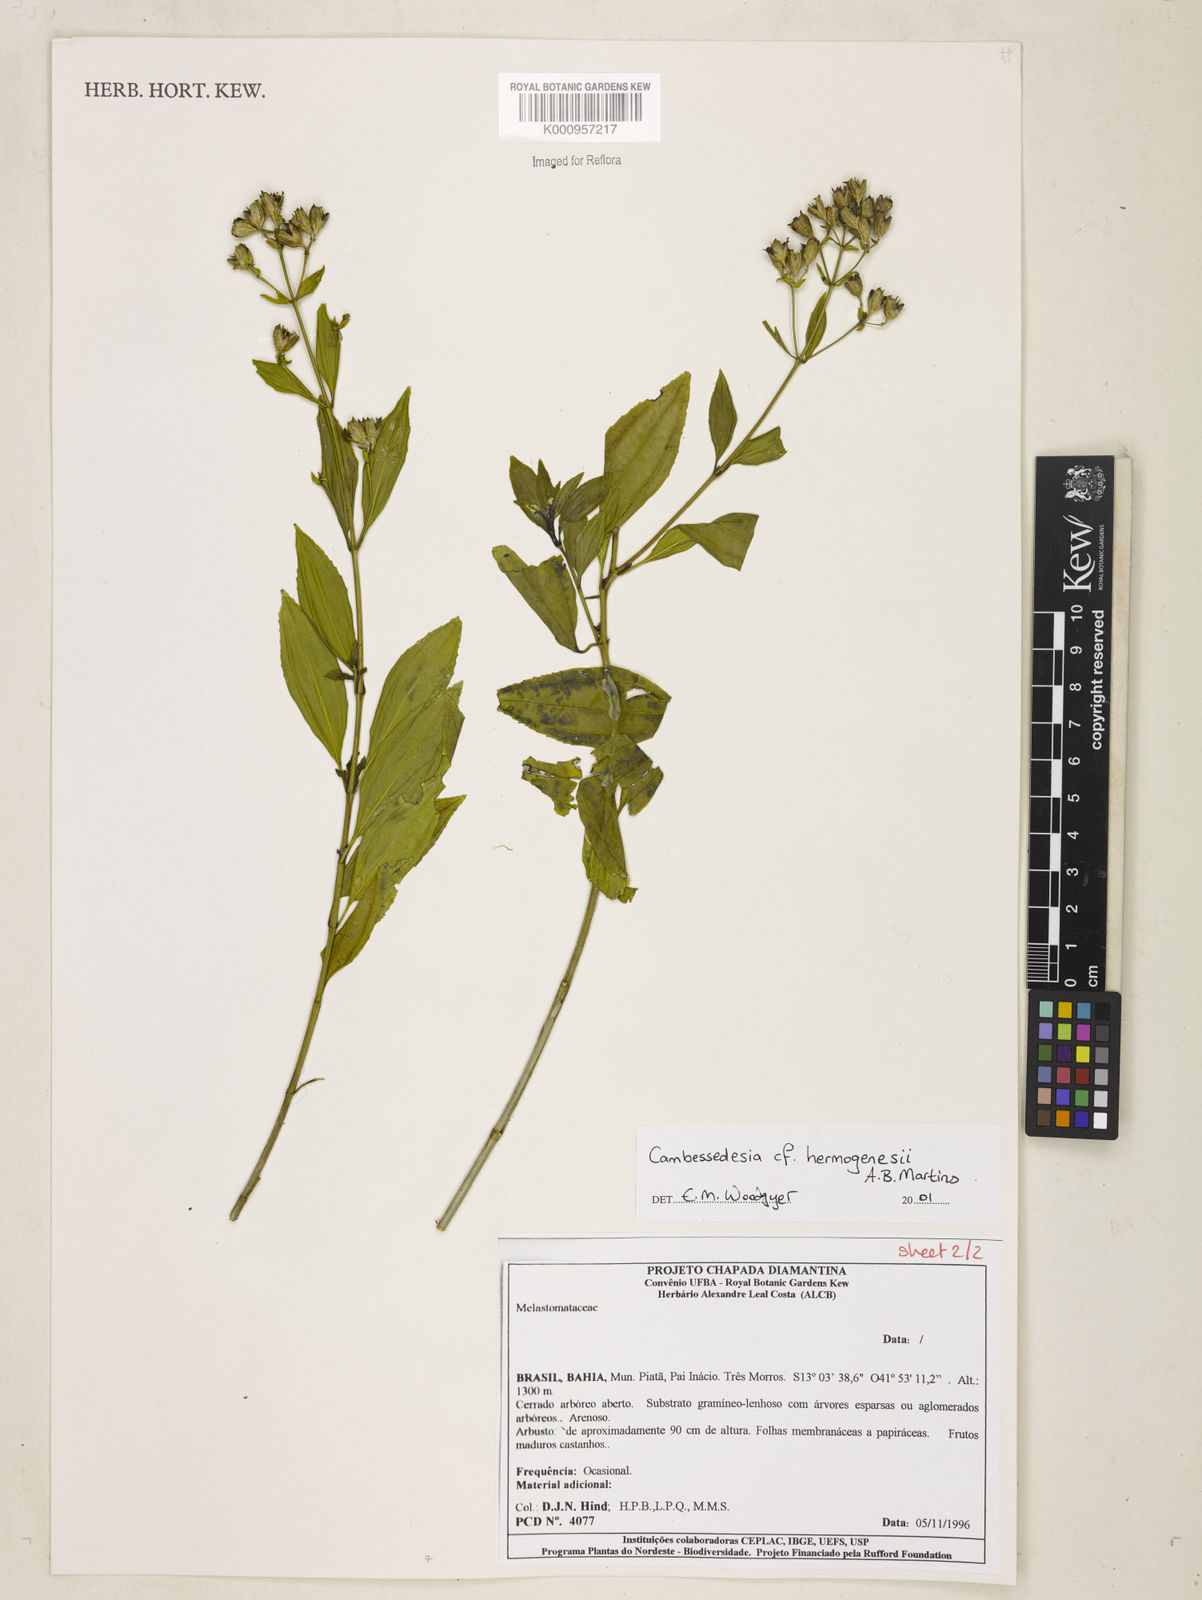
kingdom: Plantae
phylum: Tracheophyta
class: Magnoliopsida
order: Myrtales
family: Melastomataceae
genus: Cambessedesia
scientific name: Cambessedesia hermogenesii
